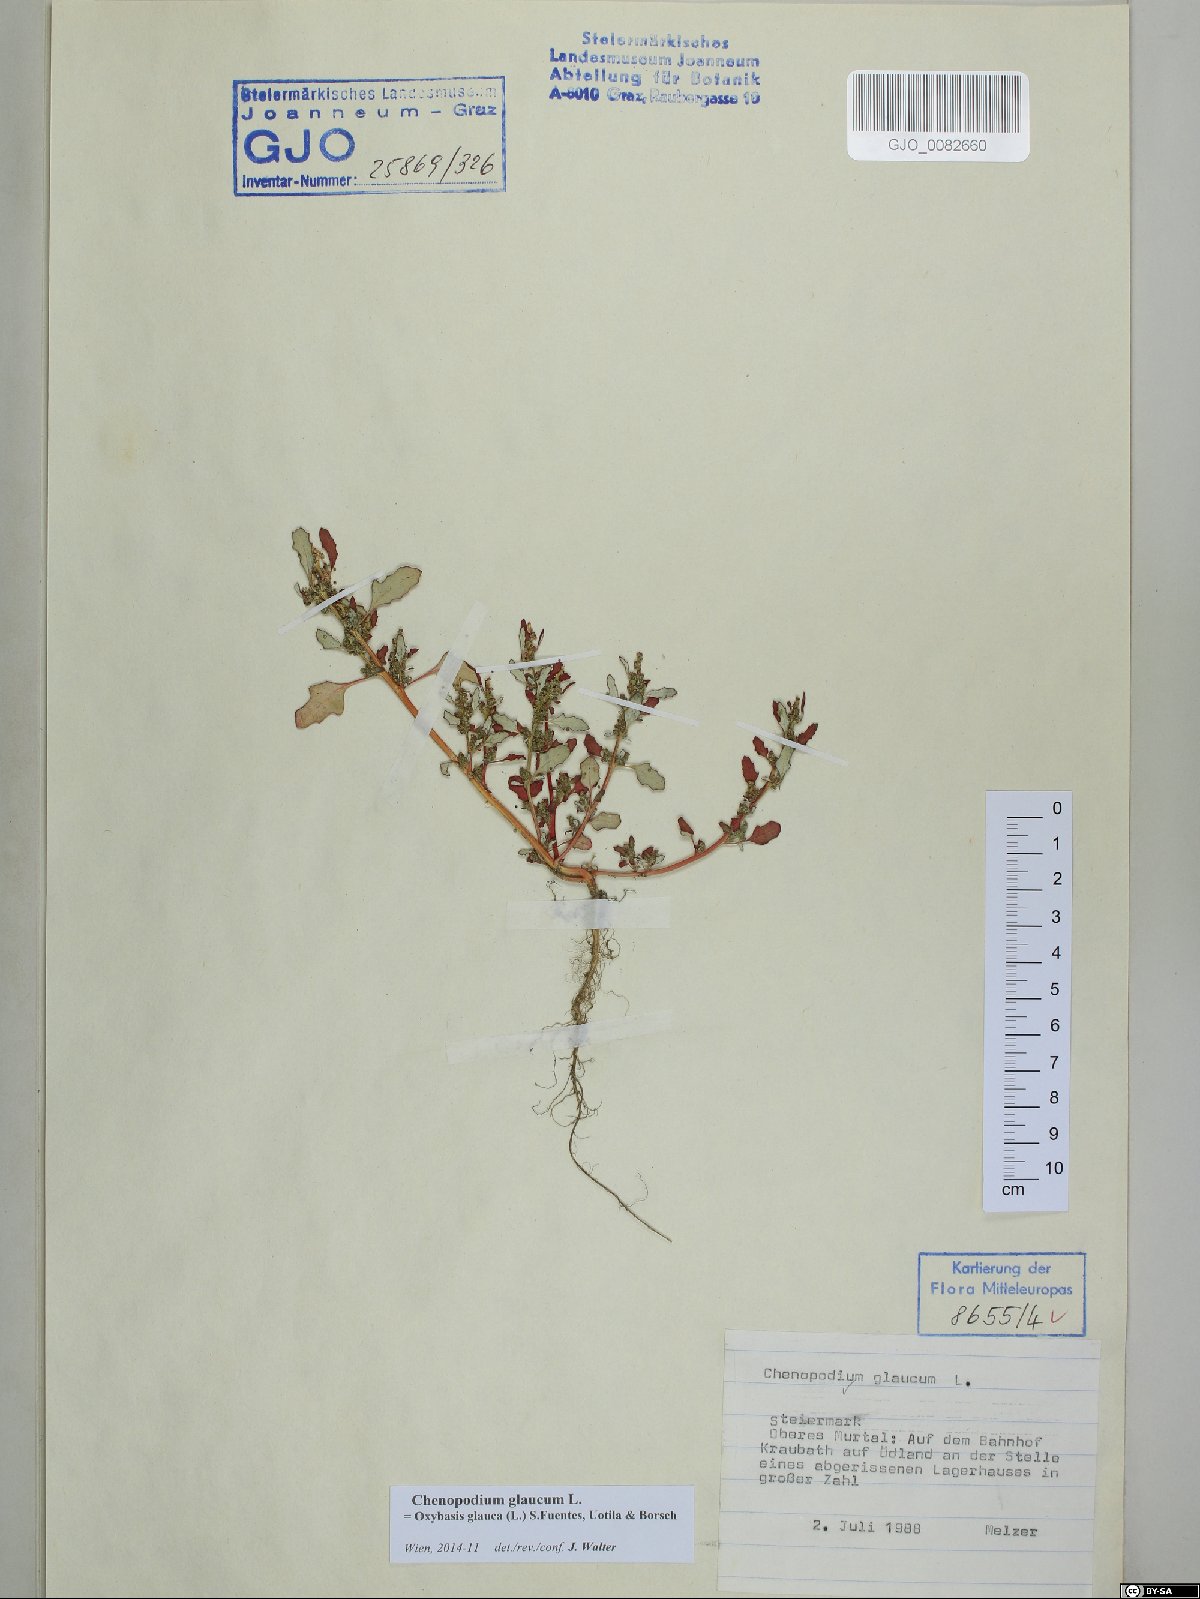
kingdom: Plantae
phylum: Tracheophyta
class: Magnoliopsida
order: Caryophyllales
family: Amaranthaceae
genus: Oxybasis
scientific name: Oxybasis glauca
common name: Glaucous goosefoot
